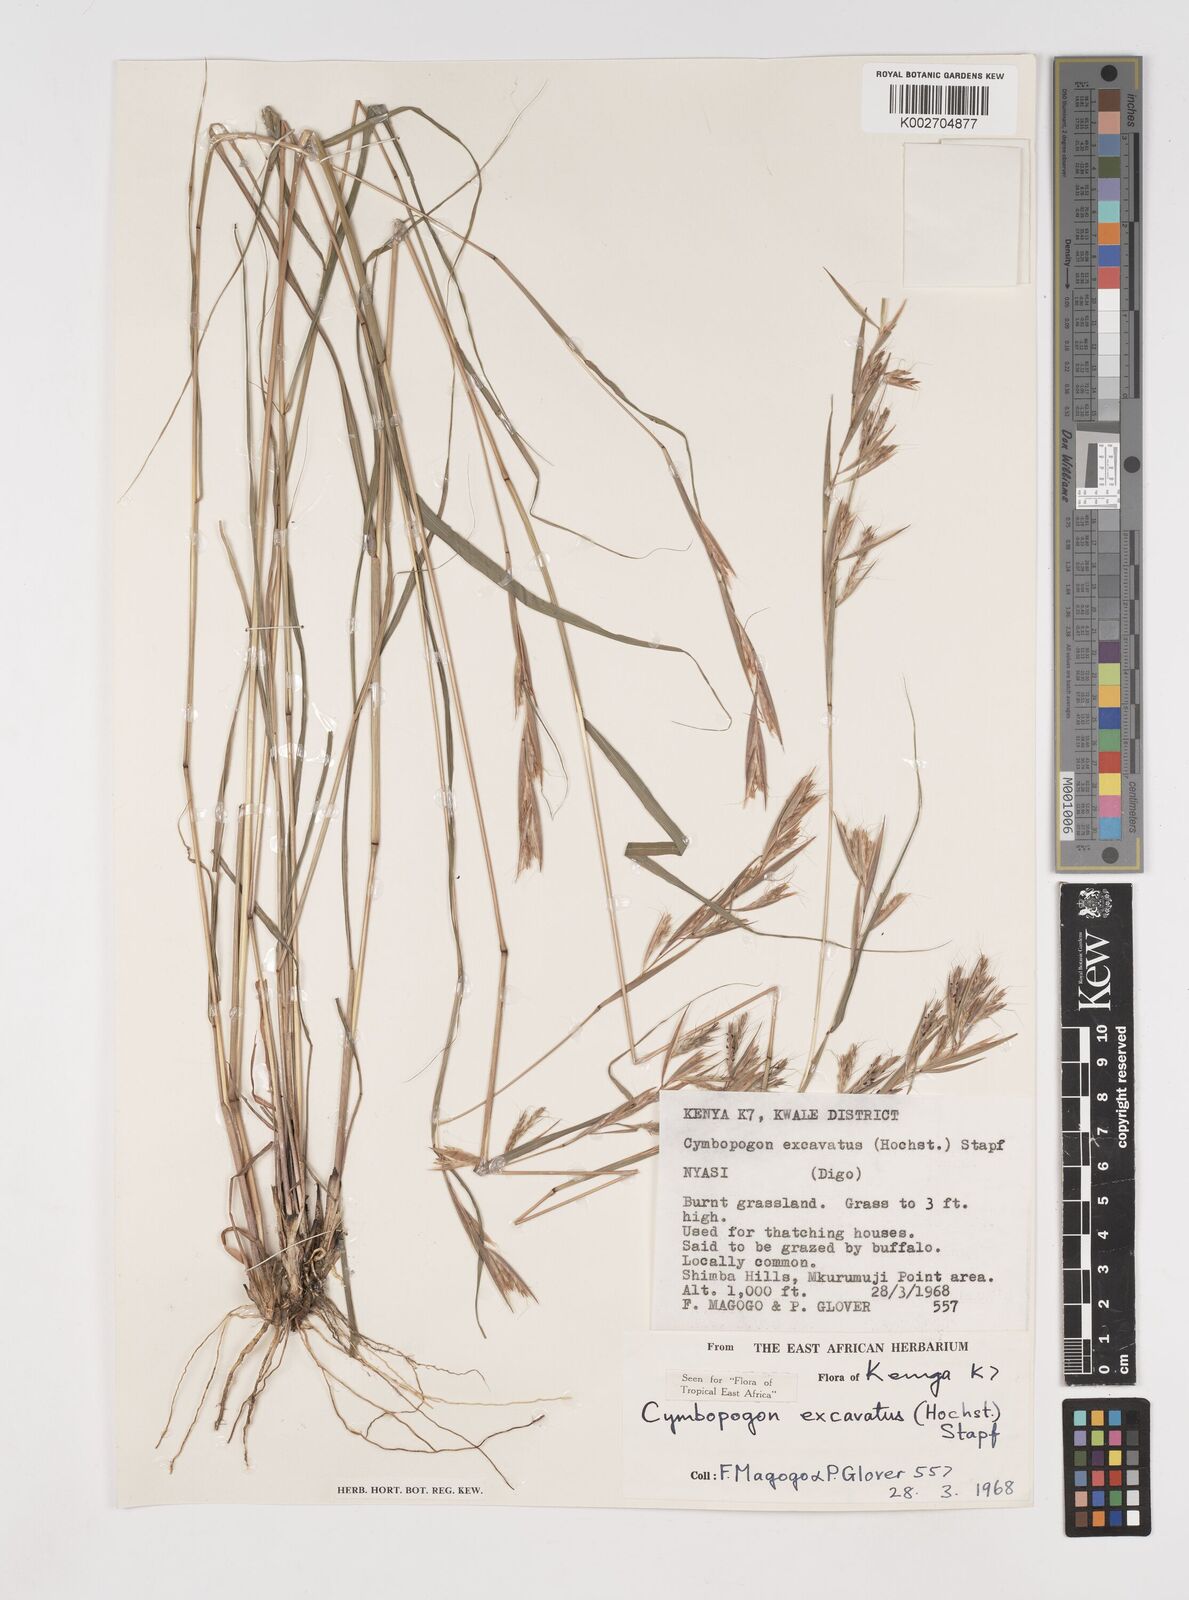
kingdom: Plantae
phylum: Tracheophyta
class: Liliopsida
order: Poales
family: Poaceae
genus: Cymbopogon
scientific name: Cymbopogon caesius
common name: Kachi grass
